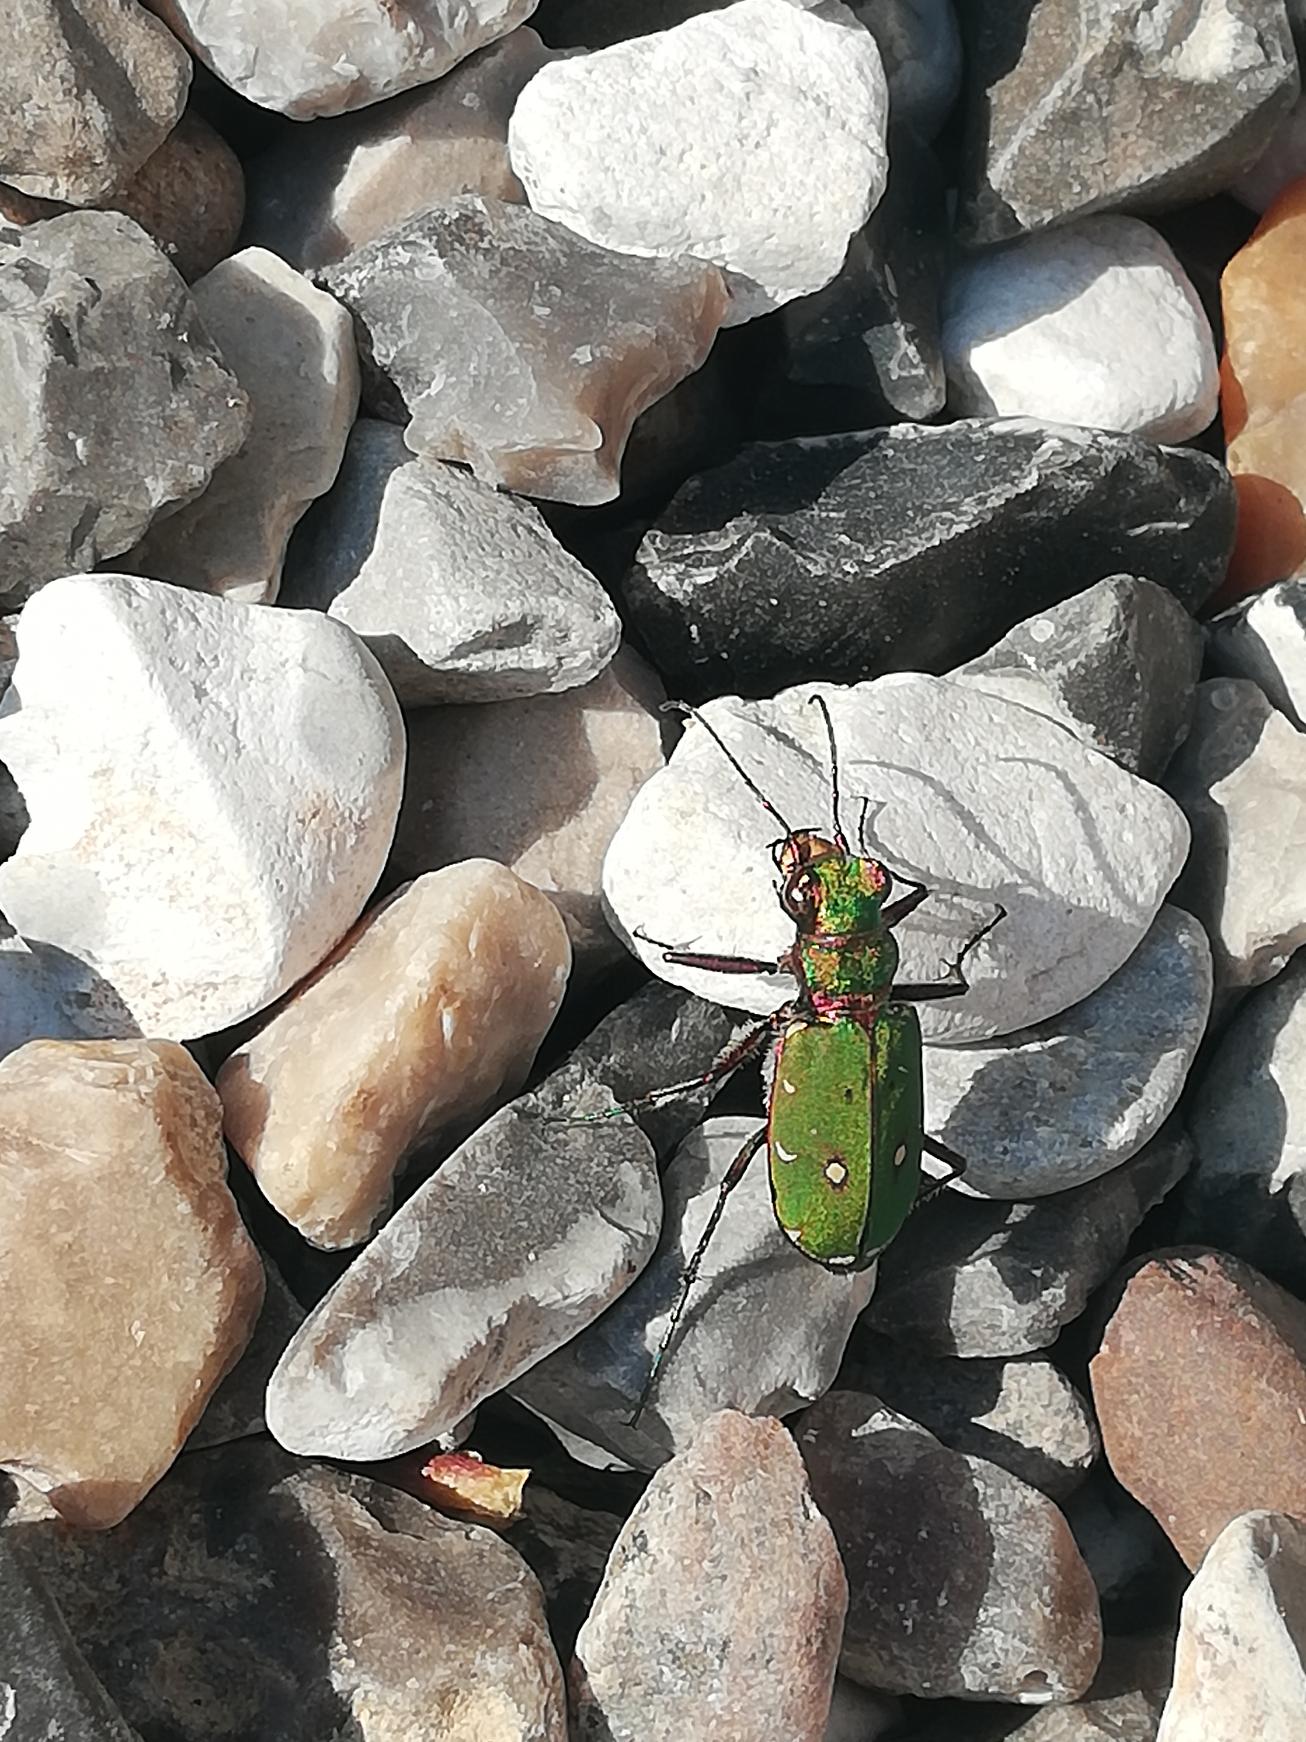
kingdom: Animalia
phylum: Arthropoda
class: Insecta
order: Coleoptera
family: Carabidae
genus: Cicindela
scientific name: Cicindela campestris
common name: Grøn sandspringer
